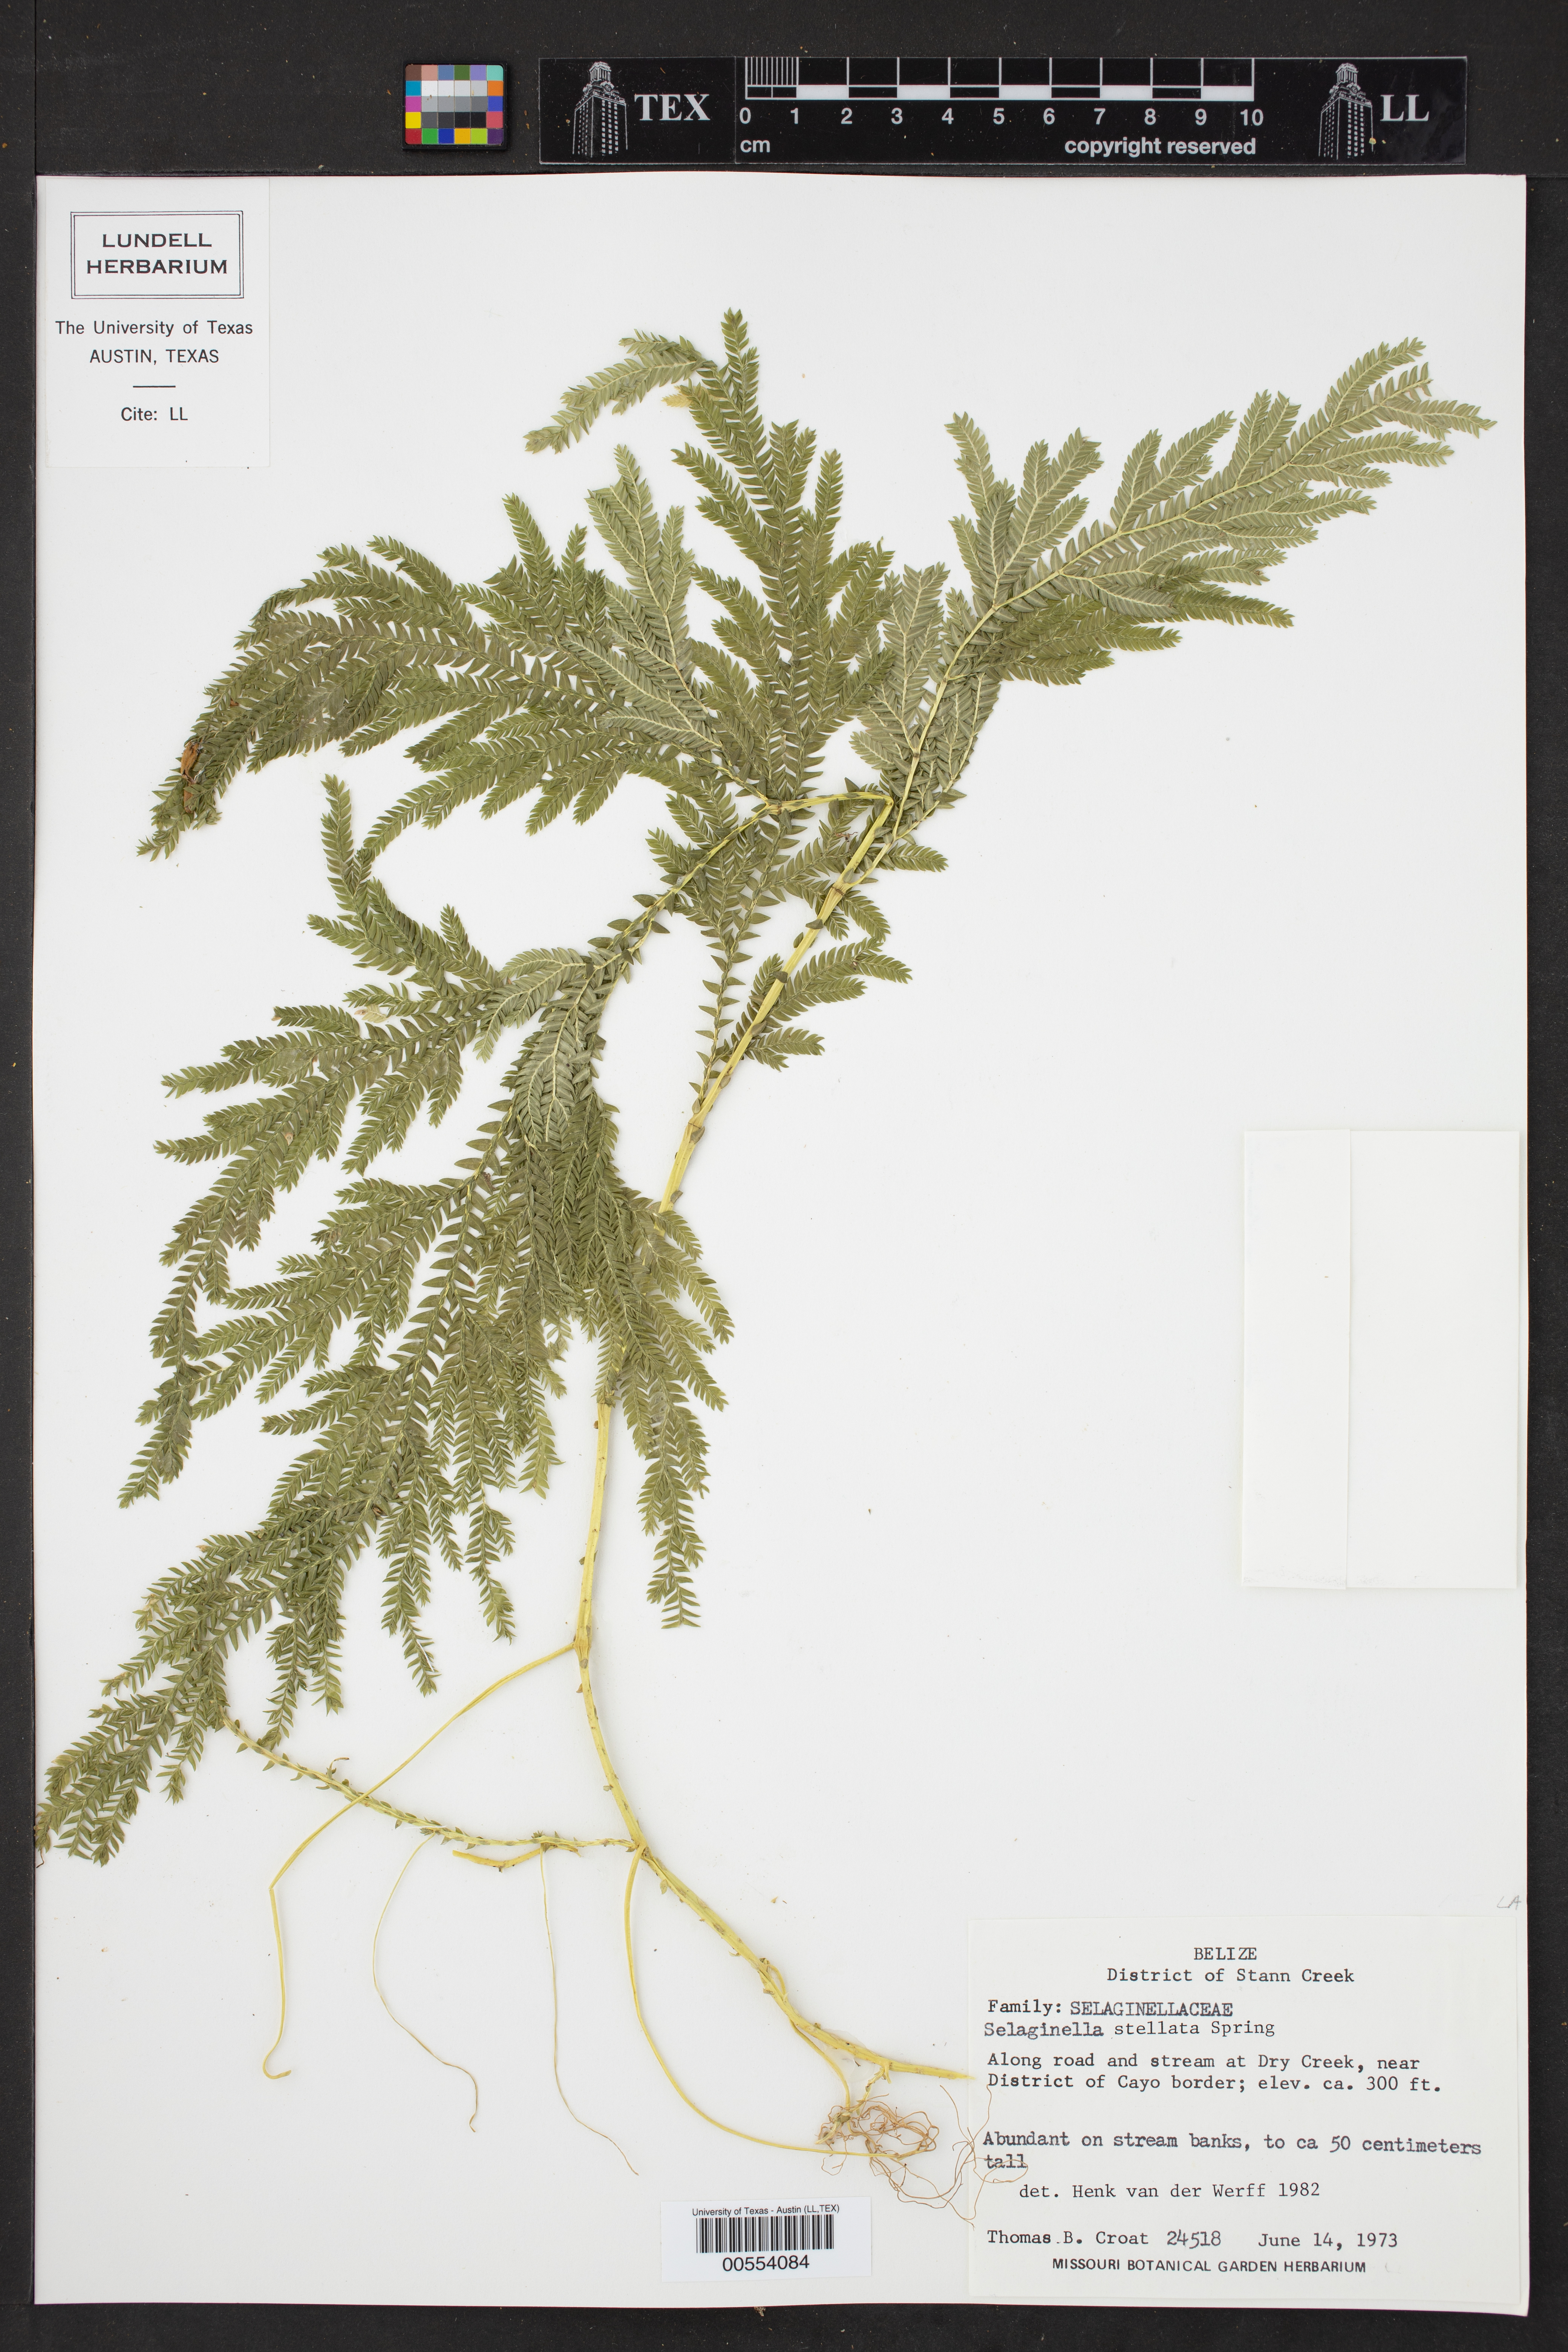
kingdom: Plantae
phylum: Tracheophyta
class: Lycopodiopsida
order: Selaginellales
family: Selaginellaceae
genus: Selaginella
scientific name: Selaginella stellata
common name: Starry spikemoss
